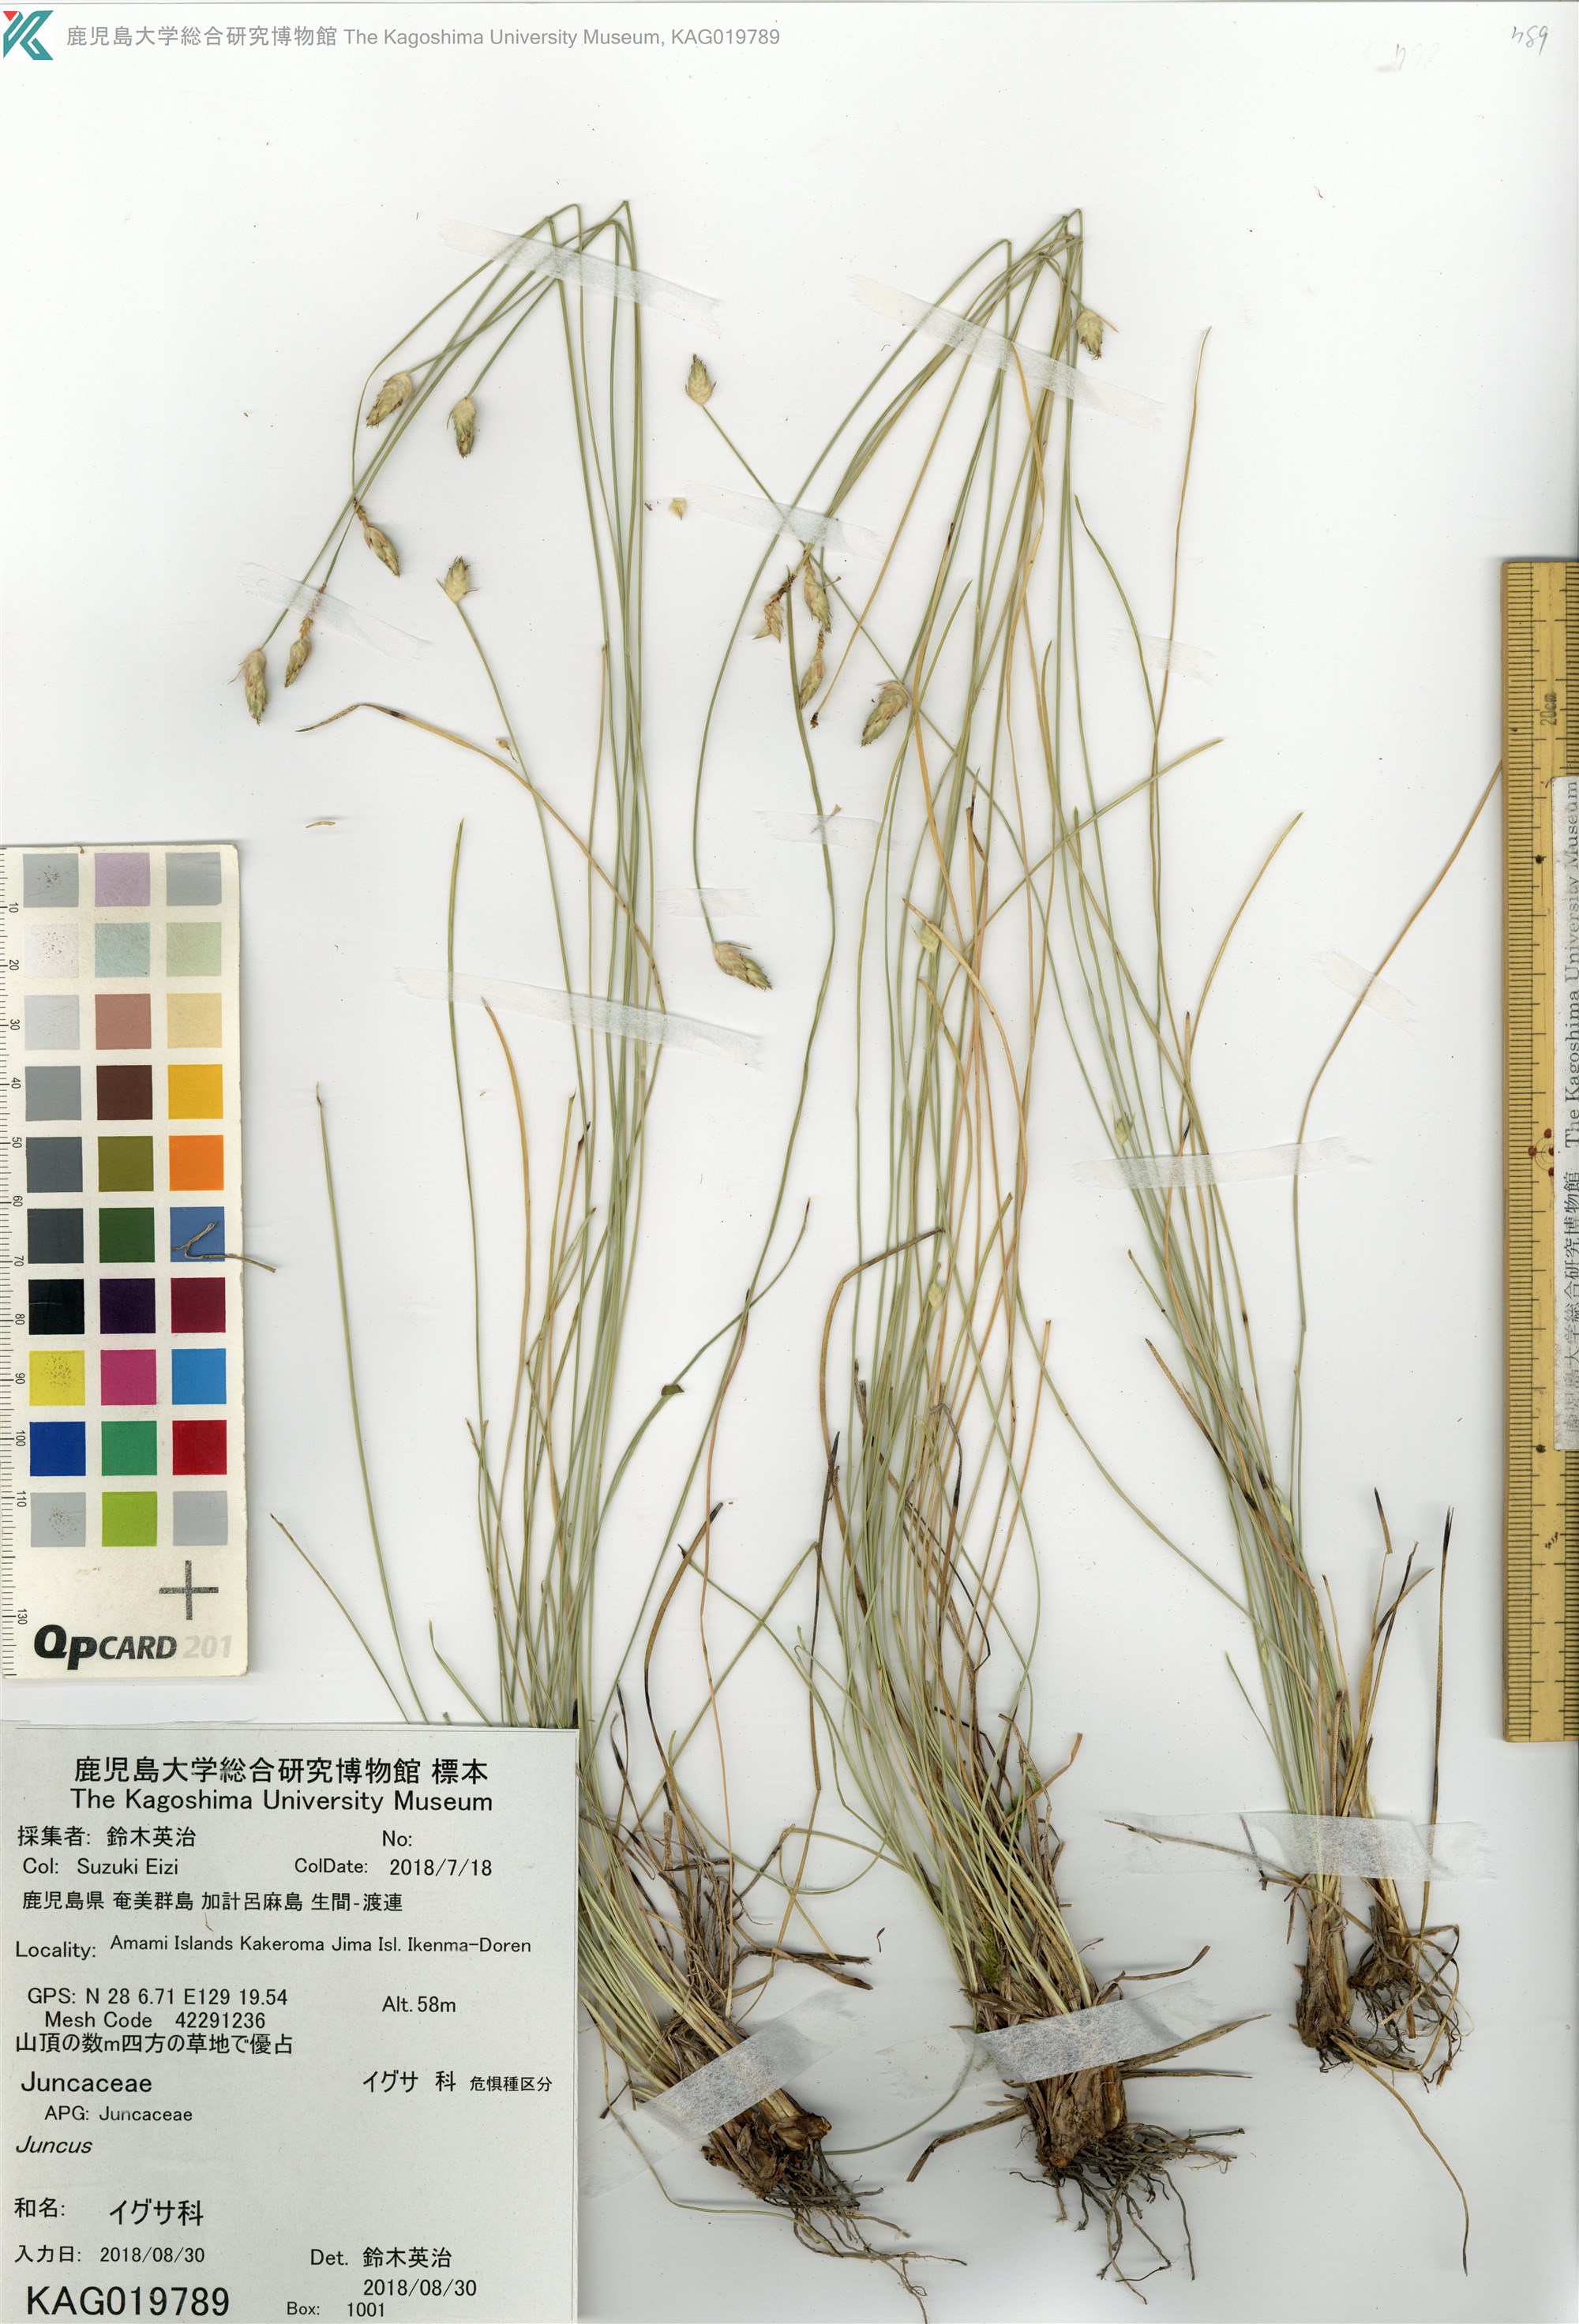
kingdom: Plantae
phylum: Tracheophyta
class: Liliopsida
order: Poales
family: Cyperaceae
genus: Fimbristylis
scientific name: Fimbristylis
